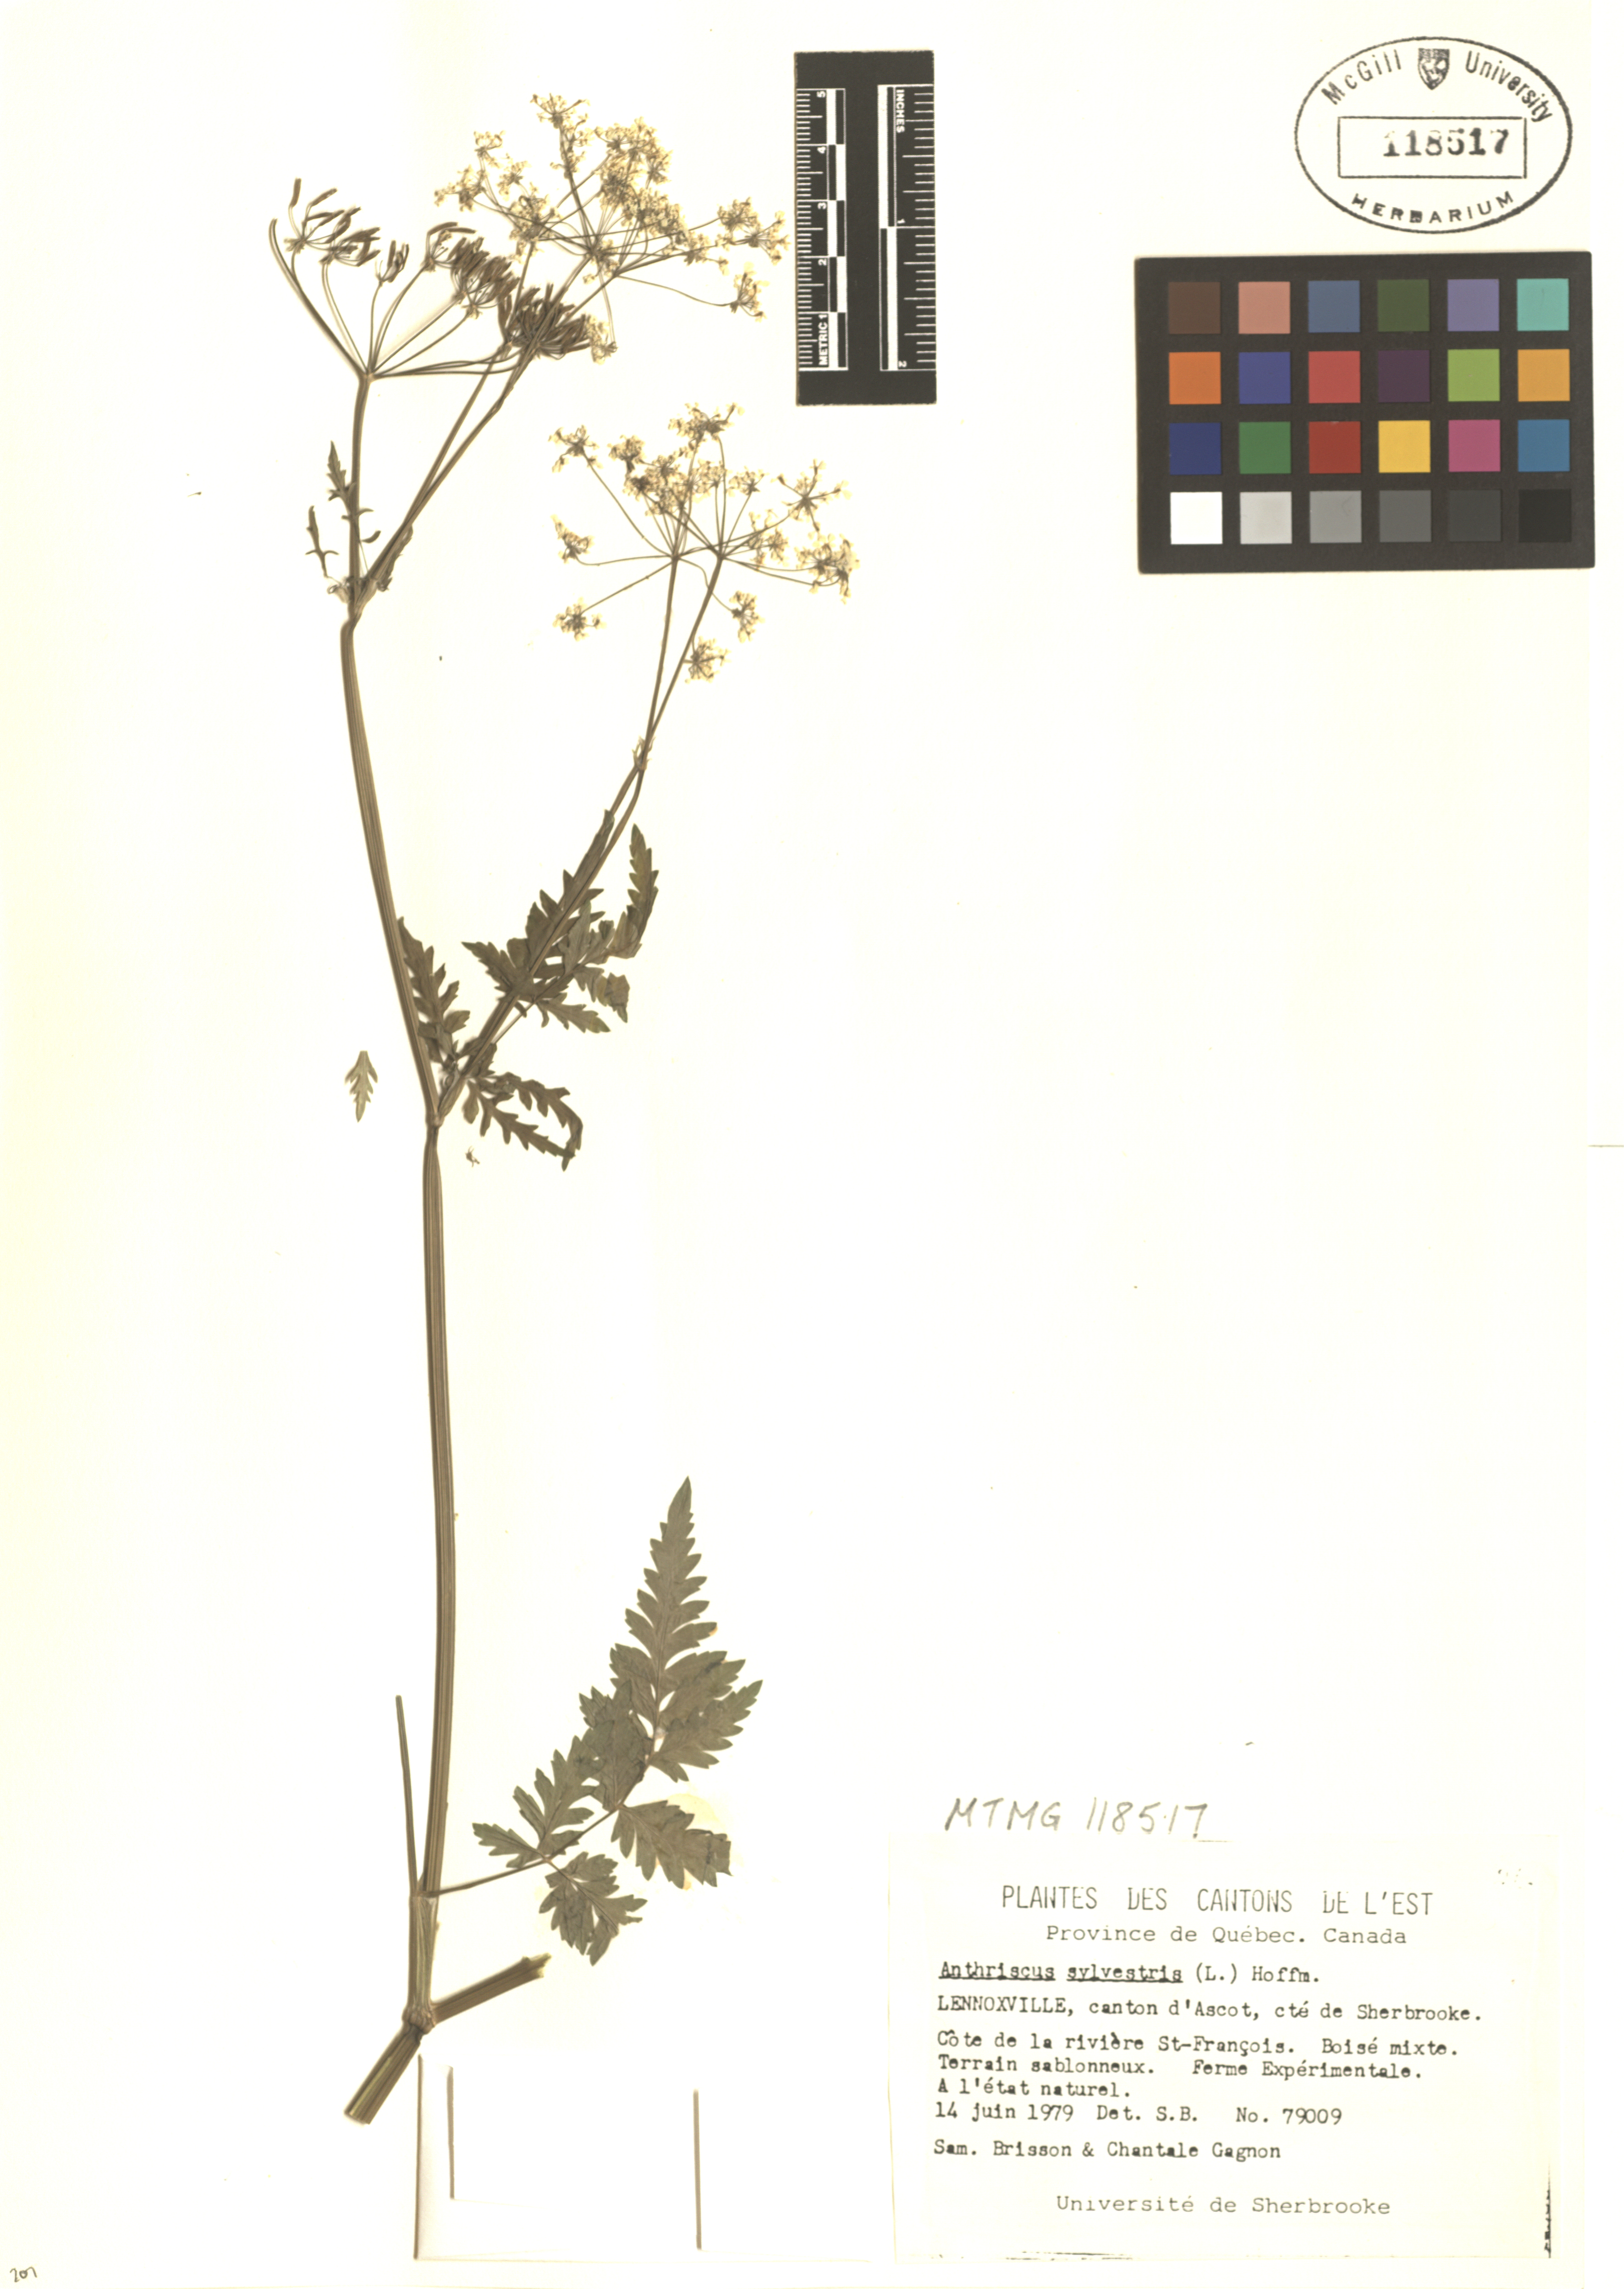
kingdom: Plantae
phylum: Tracheophyta
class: Magnoliopsida
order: Apiales
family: Apiaceae
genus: Anthriscus
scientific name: Anthriscus sylvestris
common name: Cow parsley
